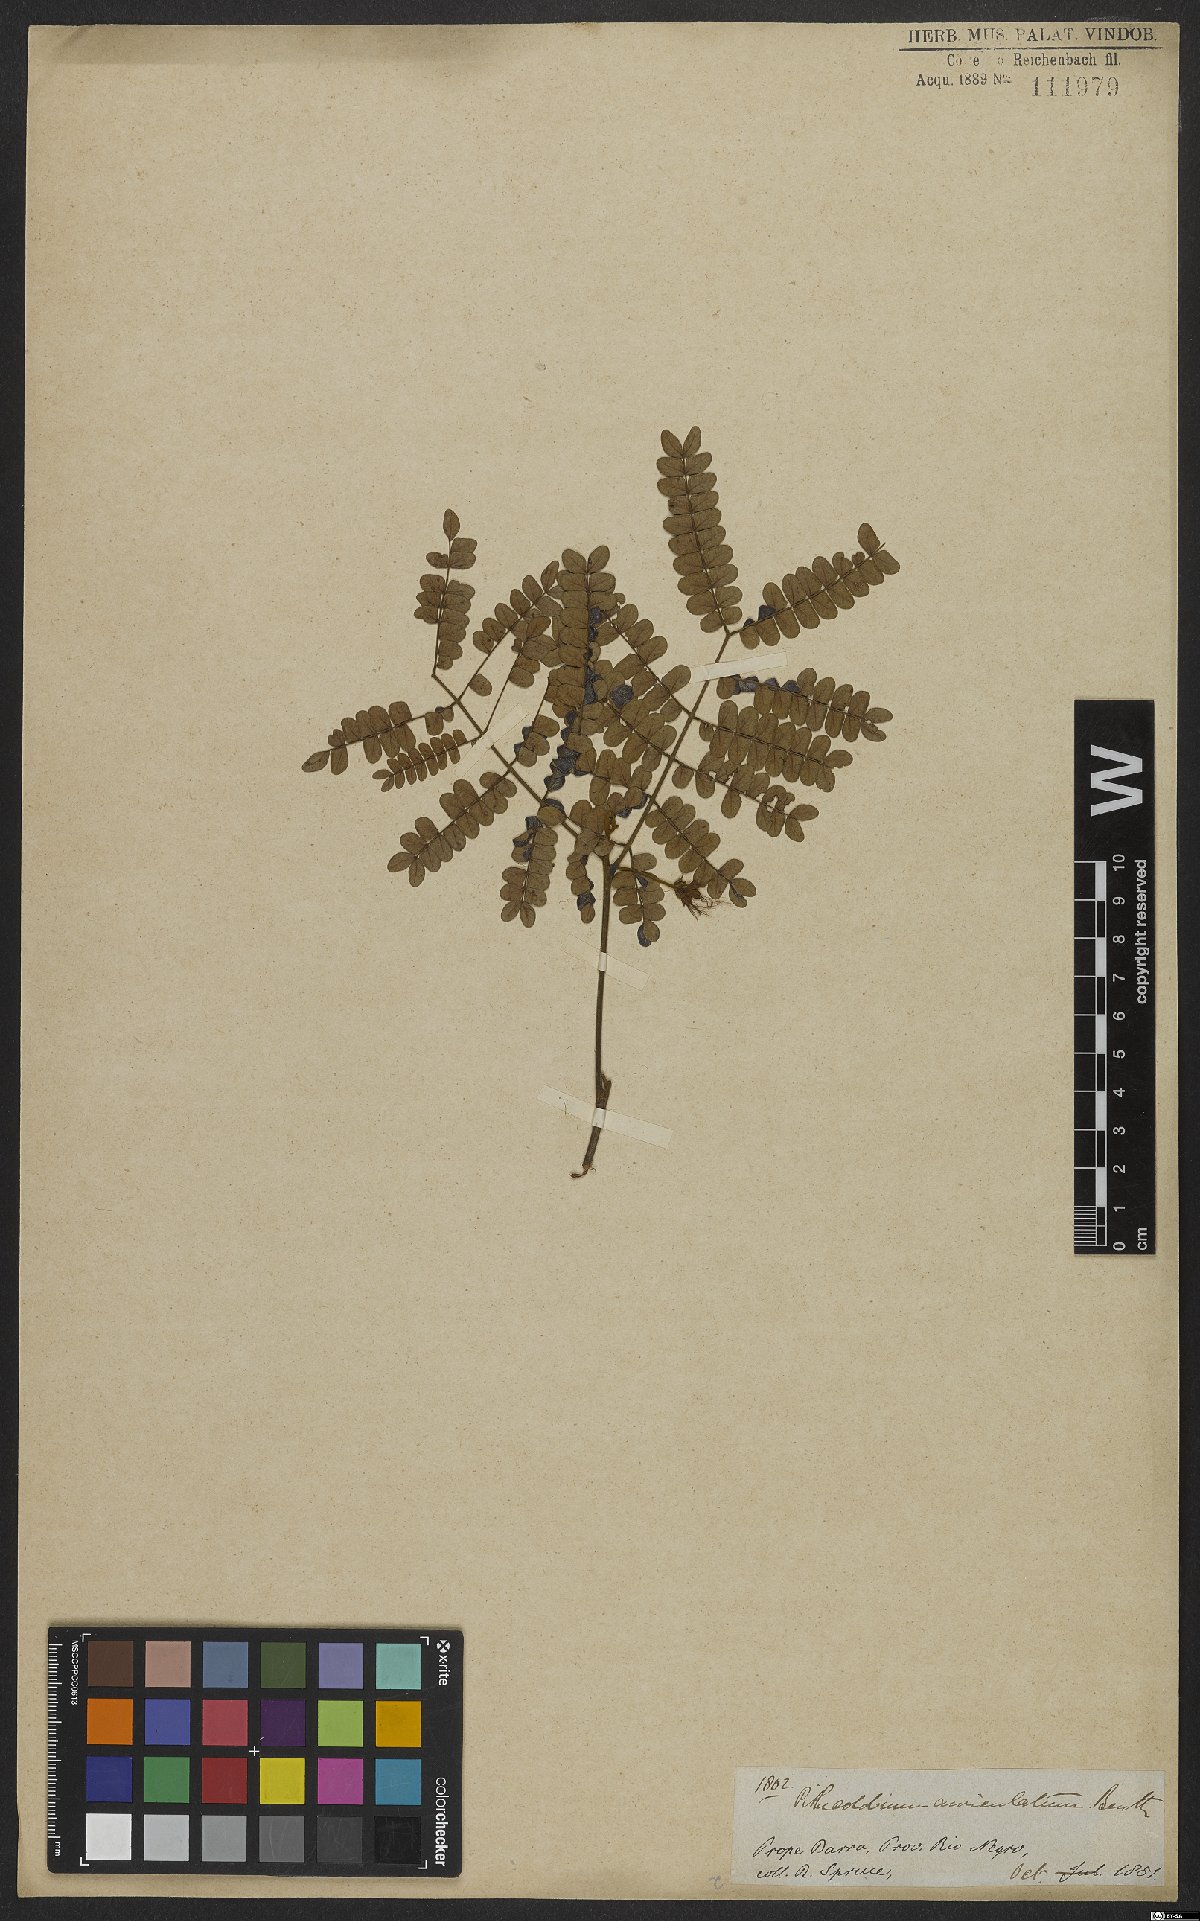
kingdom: Plantae
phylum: Tracheophyta
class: Magnoliopsida
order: Fabales
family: Fabaceae
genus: Jupunba
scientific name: Jupunba auriculata
